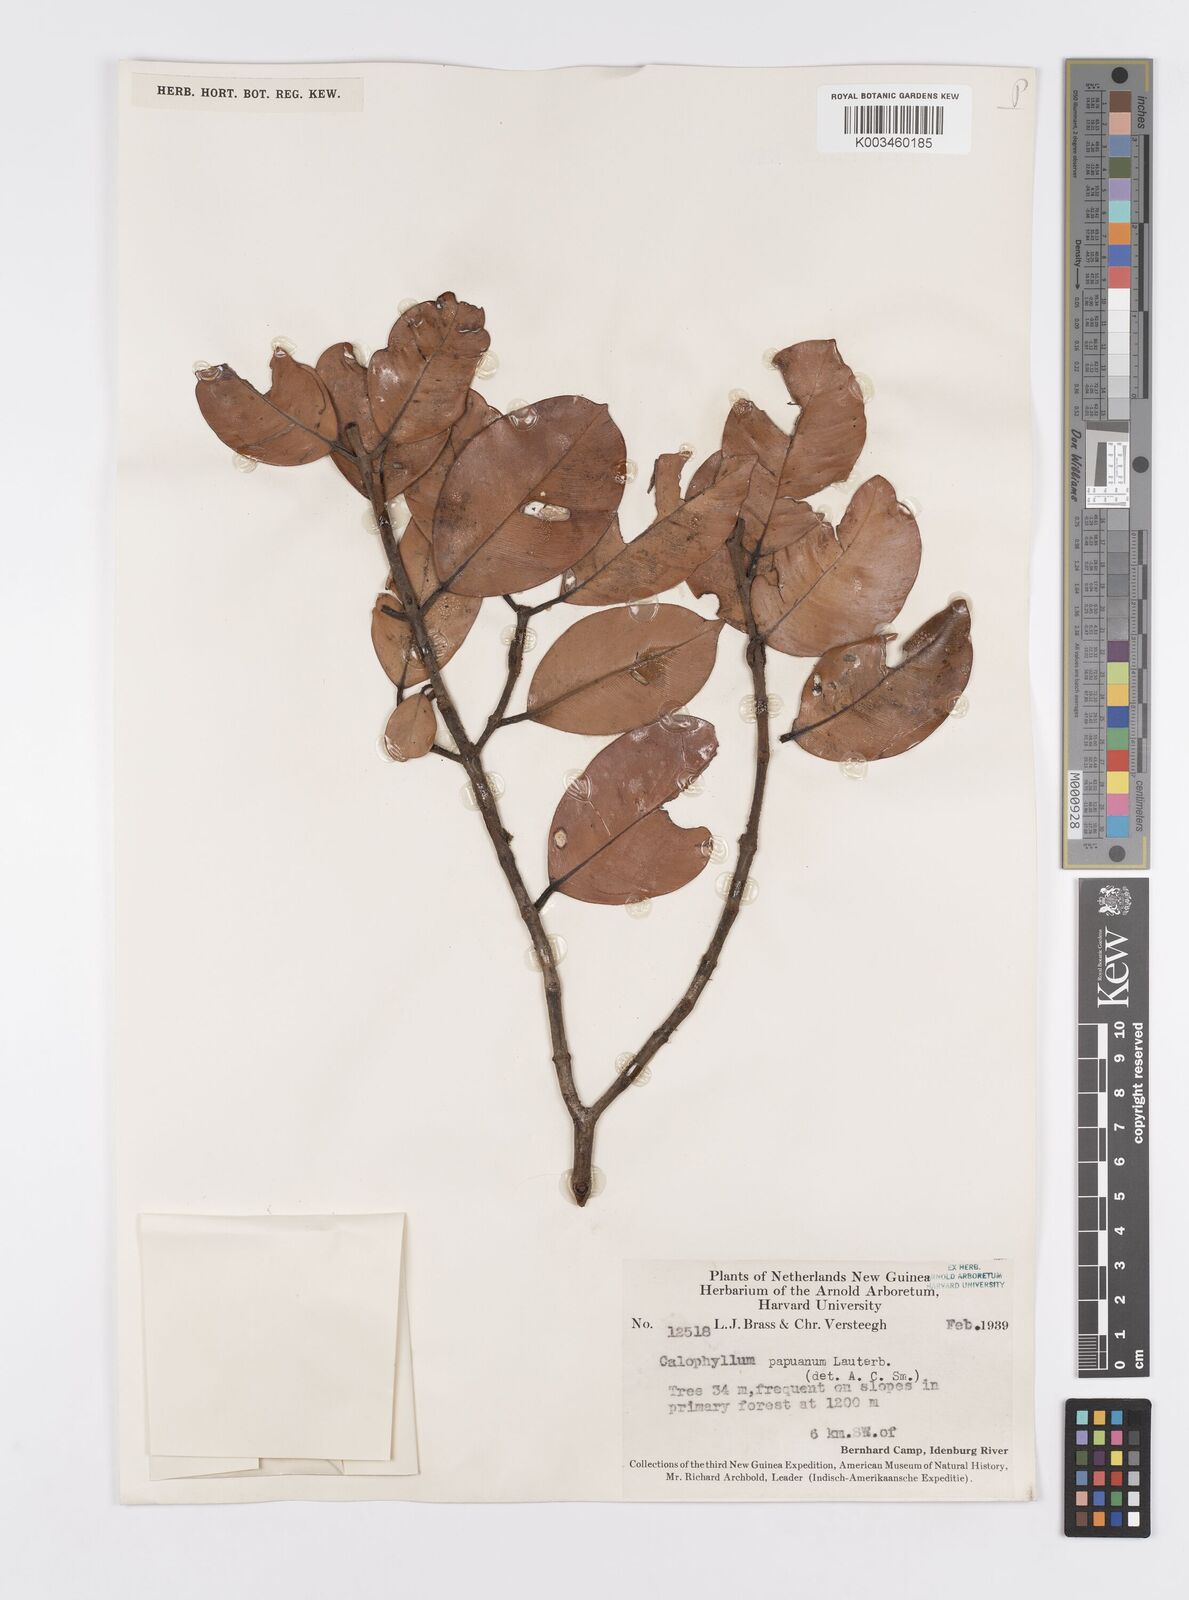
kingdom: Plantae
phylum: Tracheophyta
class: Magnoliopsida
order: Malpighiales
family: Calophyllaceae
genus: Calophyllum
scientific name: Calophyllum papuanum
